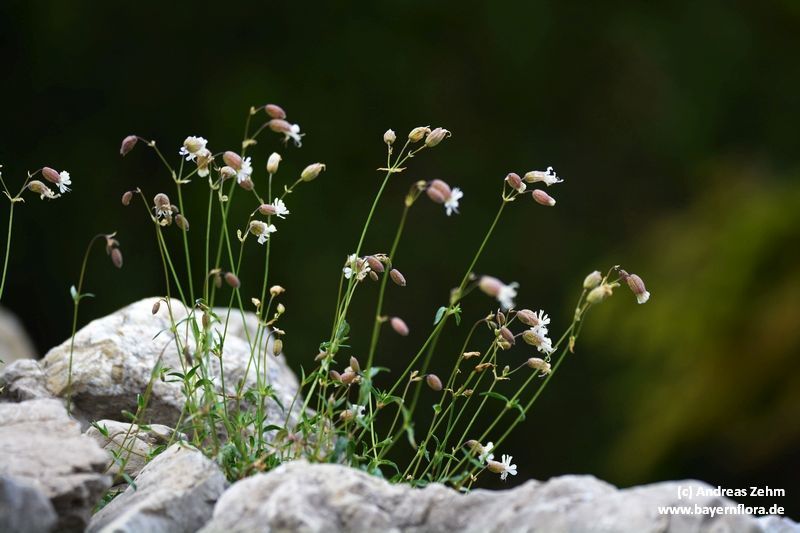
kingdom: Plantae
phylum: Tracheophyta
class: Magnoliopsida
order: Caryophyllales
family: Caryophyllaceae
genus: Silene
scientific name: Silene glareosa
